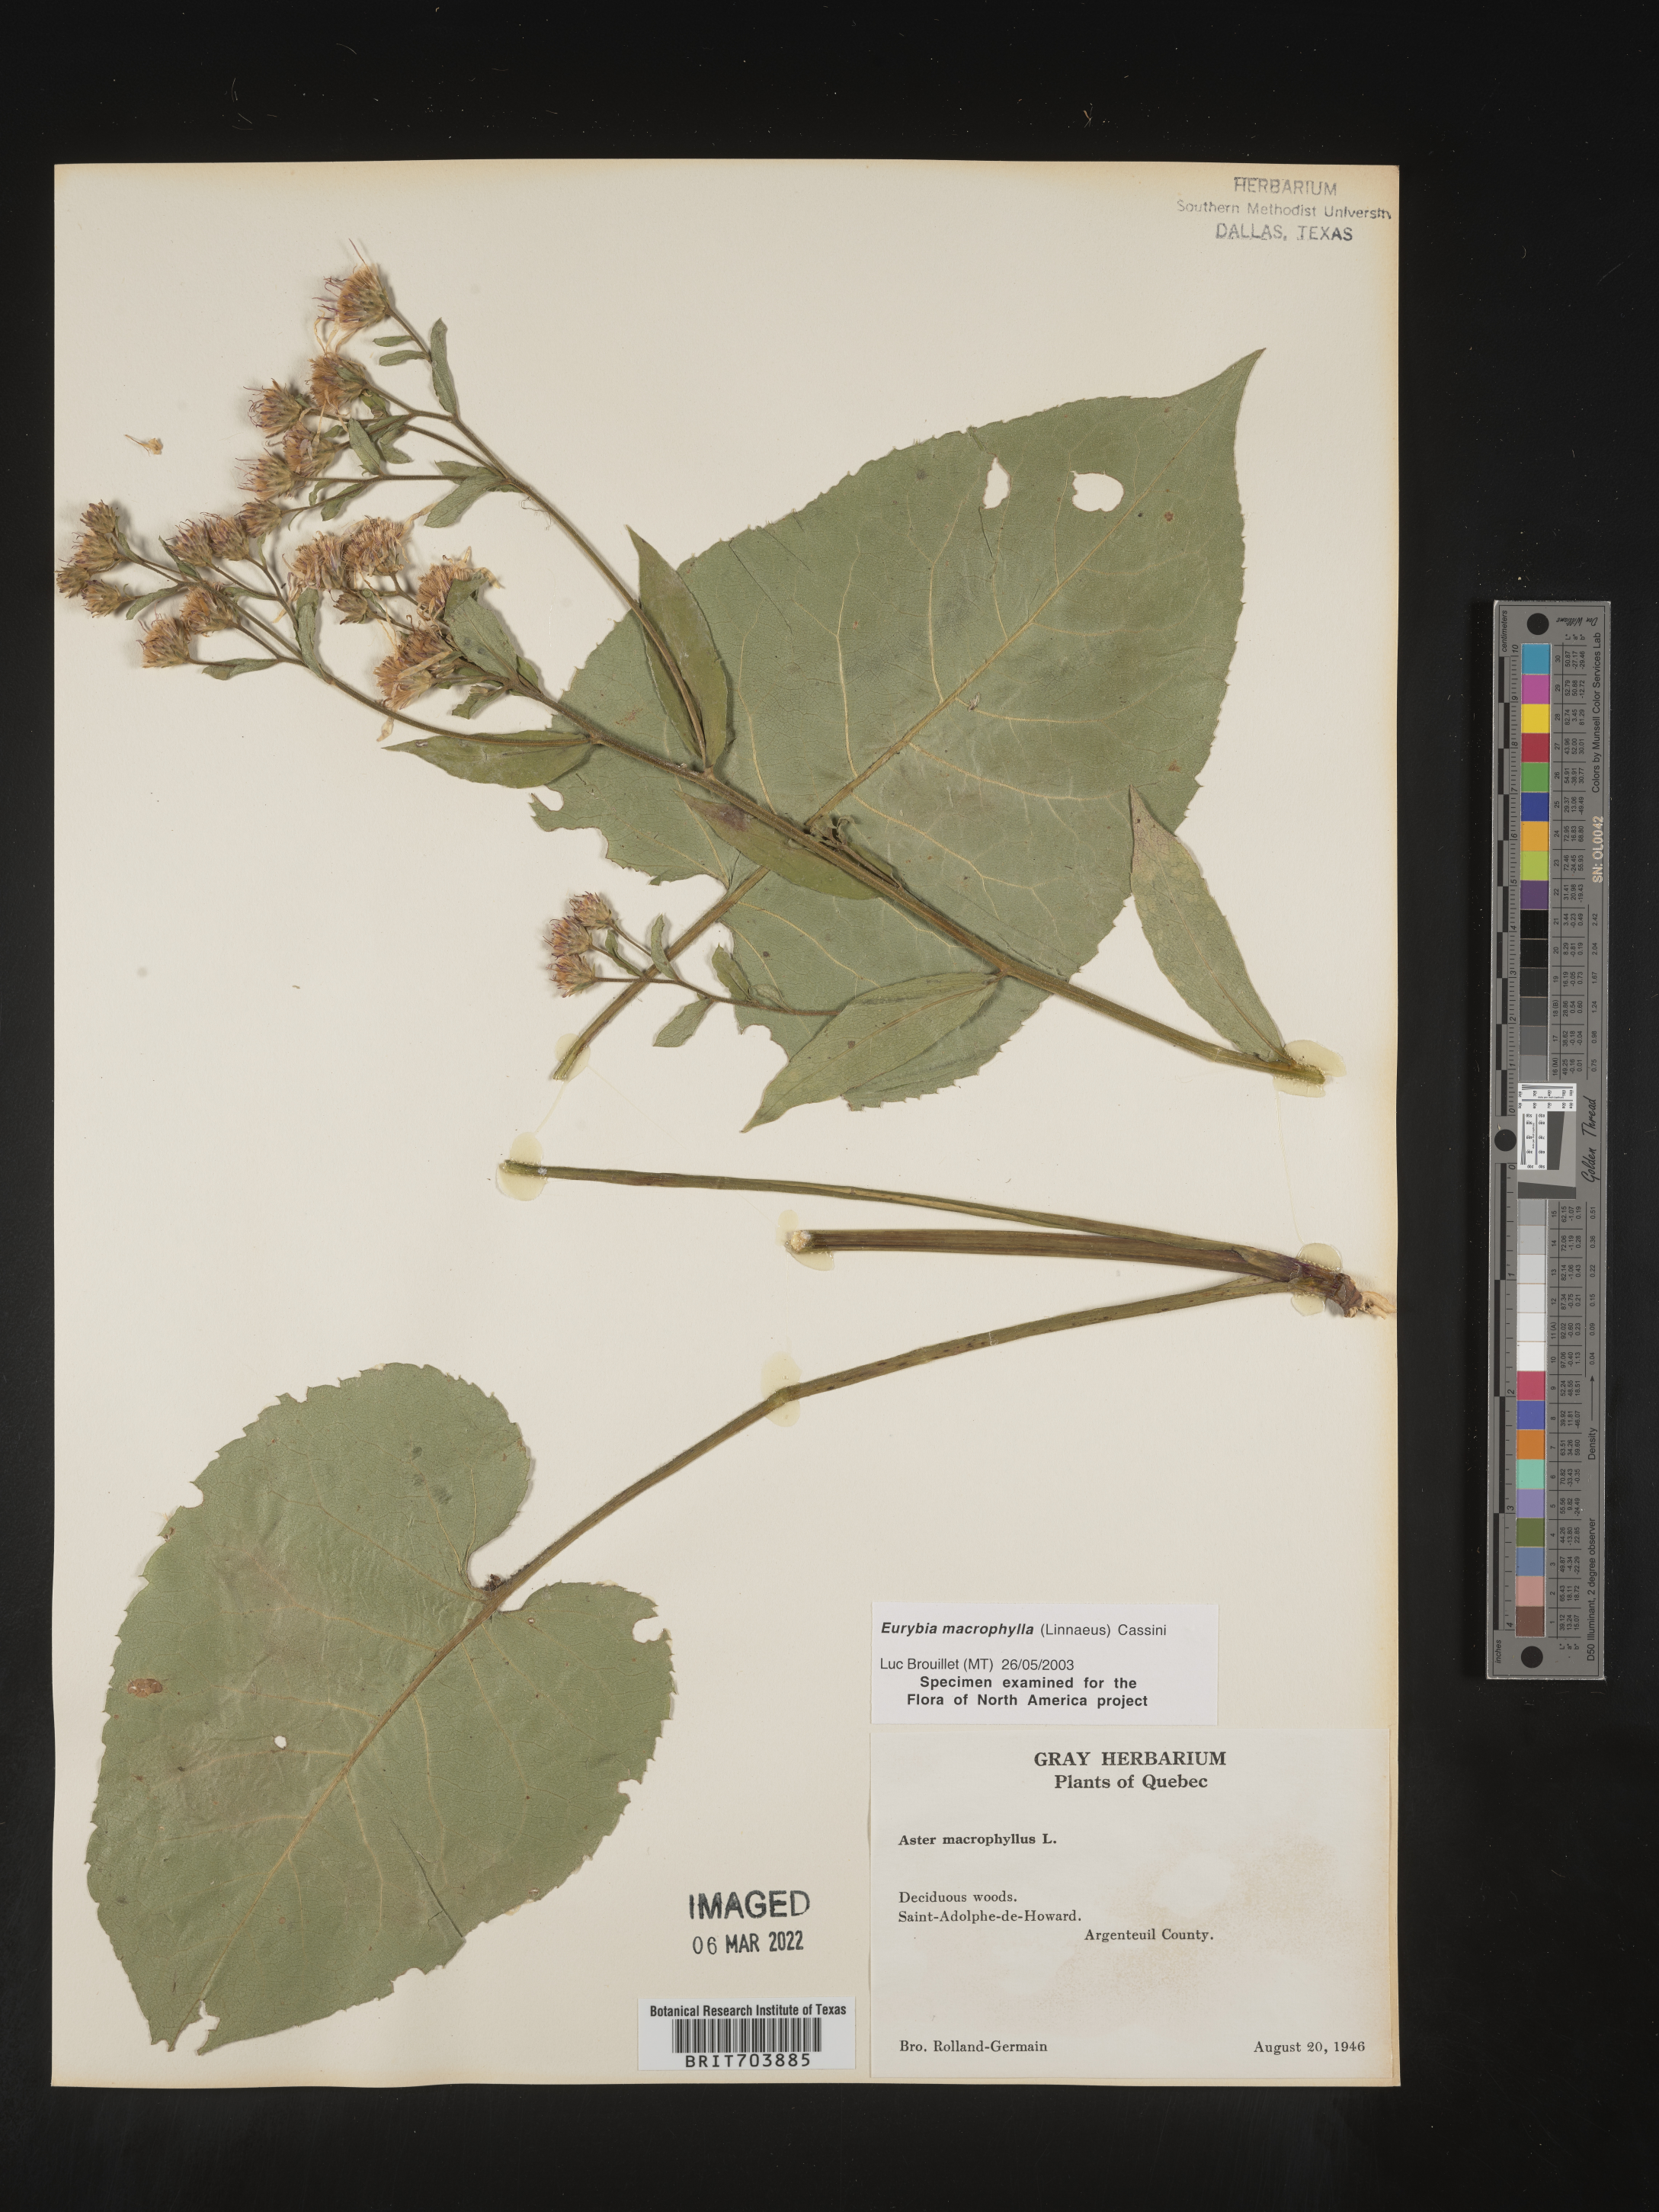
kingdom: Plantae
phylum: Tracheophyta
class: Magnoliopsida
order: Asterales
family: Asteraceae
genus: Eurybia
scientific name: Eurybia macrophylla
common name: Big-leaved aster
